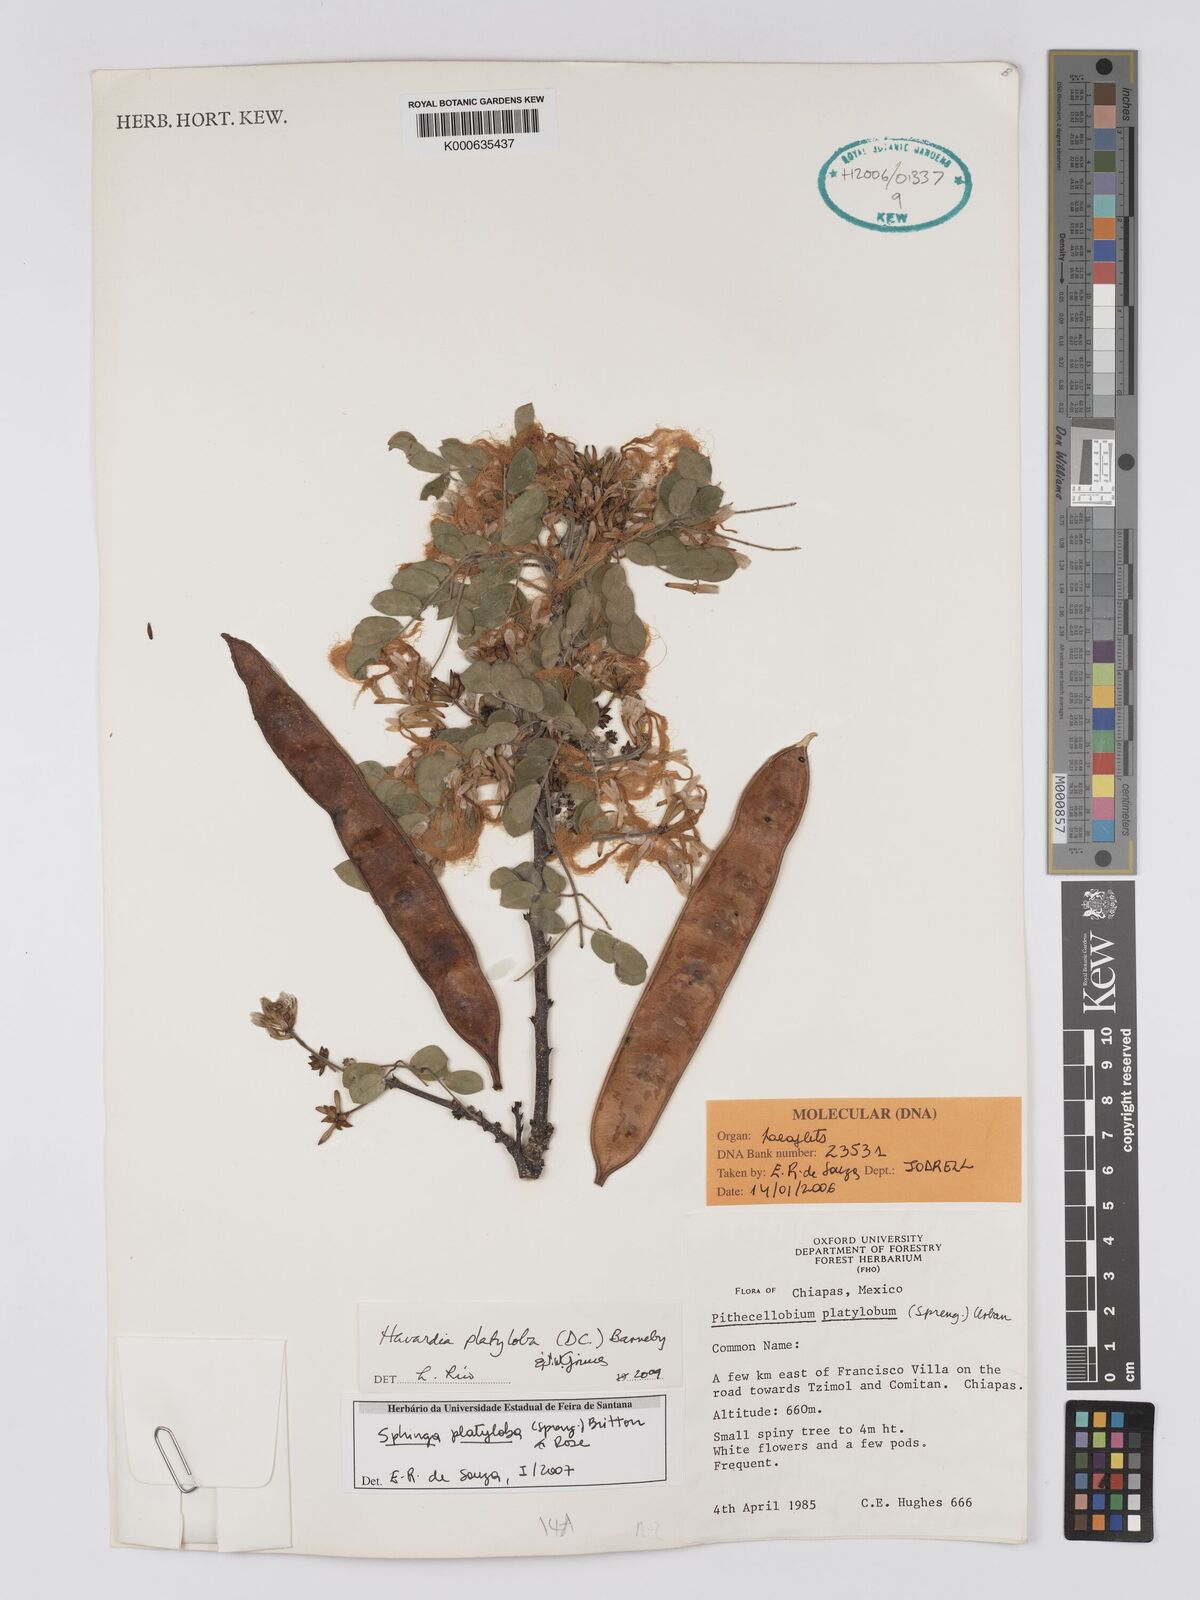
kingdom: Plantae
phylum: Tracheophyta
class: Magnoliopsida
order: Fabales
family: Fabaceae
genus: Havardia
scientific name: Havardia
